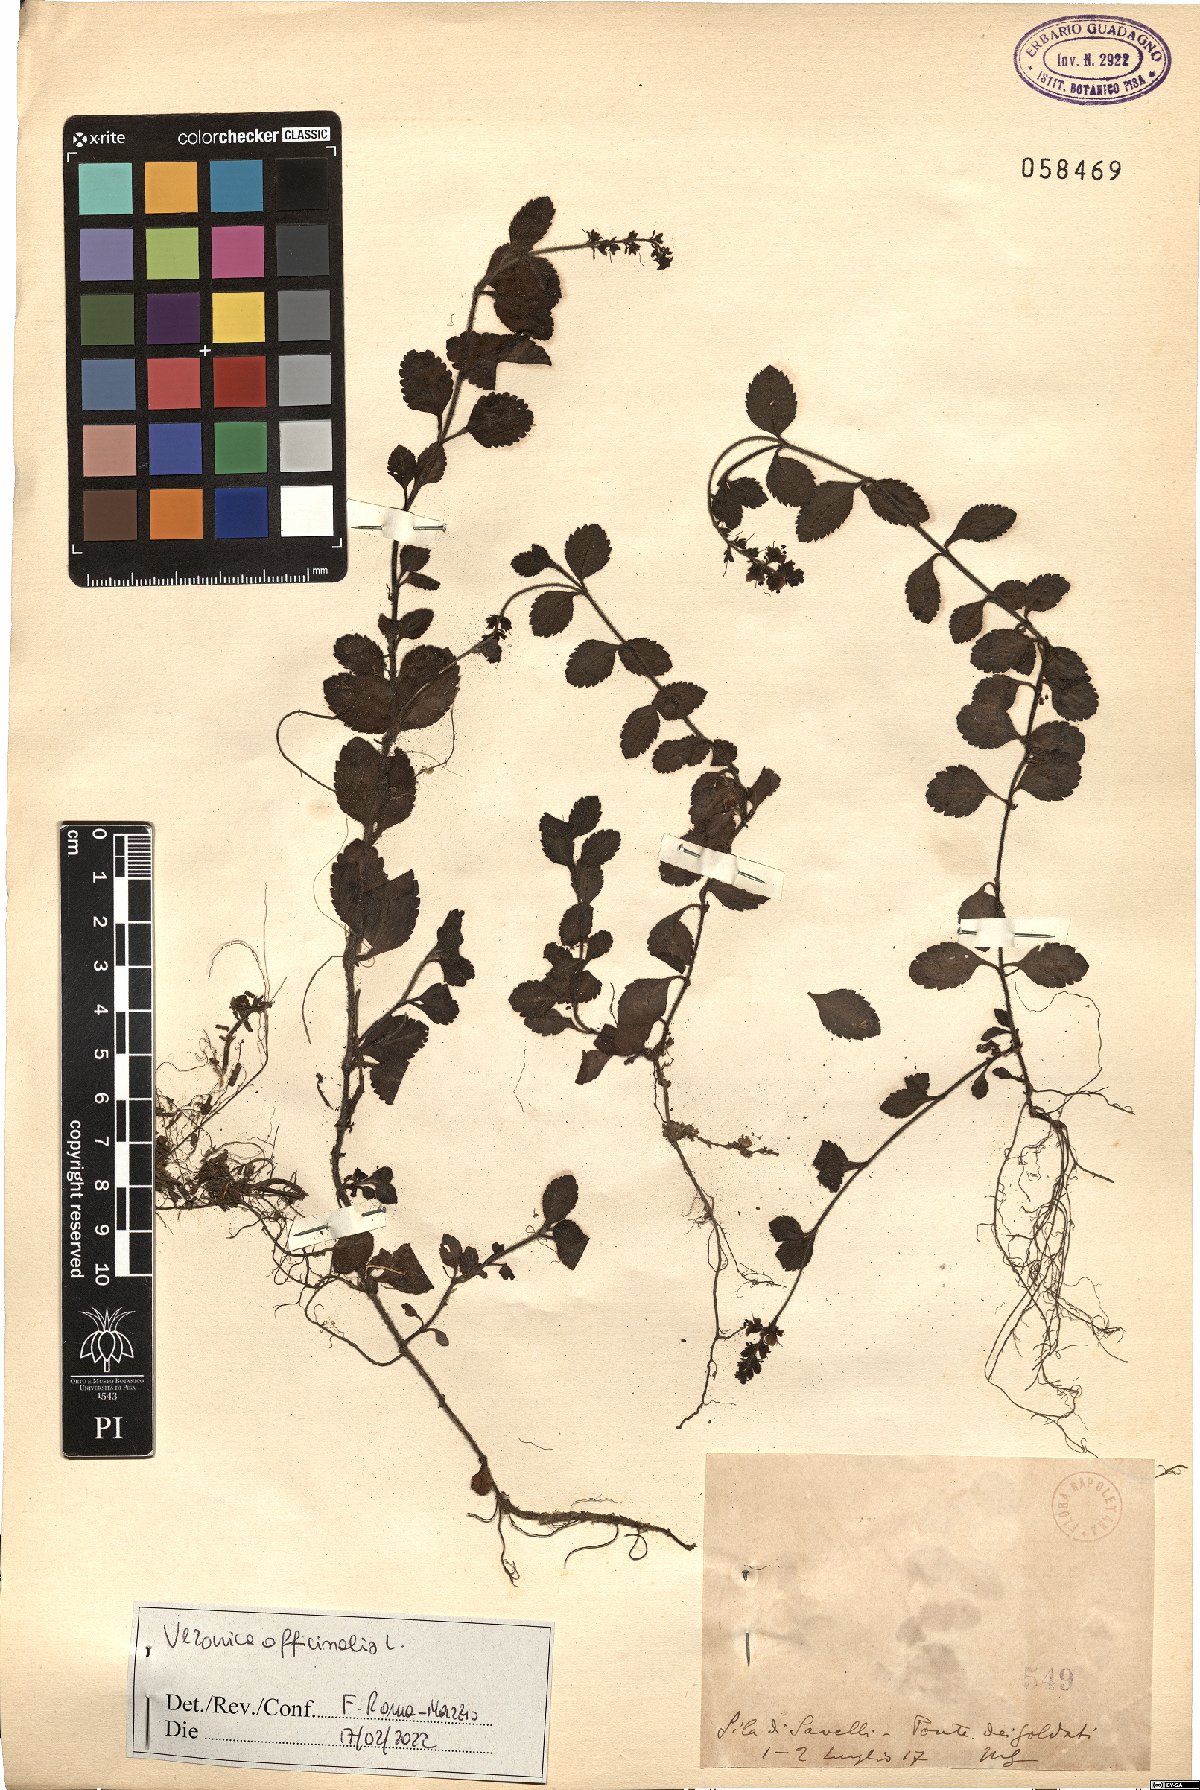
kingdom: Plantae
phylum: Tracheophyta
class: Magnoliopsida
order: Lamiales
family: Plantaginaceae
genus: Veronica
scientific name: Veronica officinalis
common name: Common speedwell
